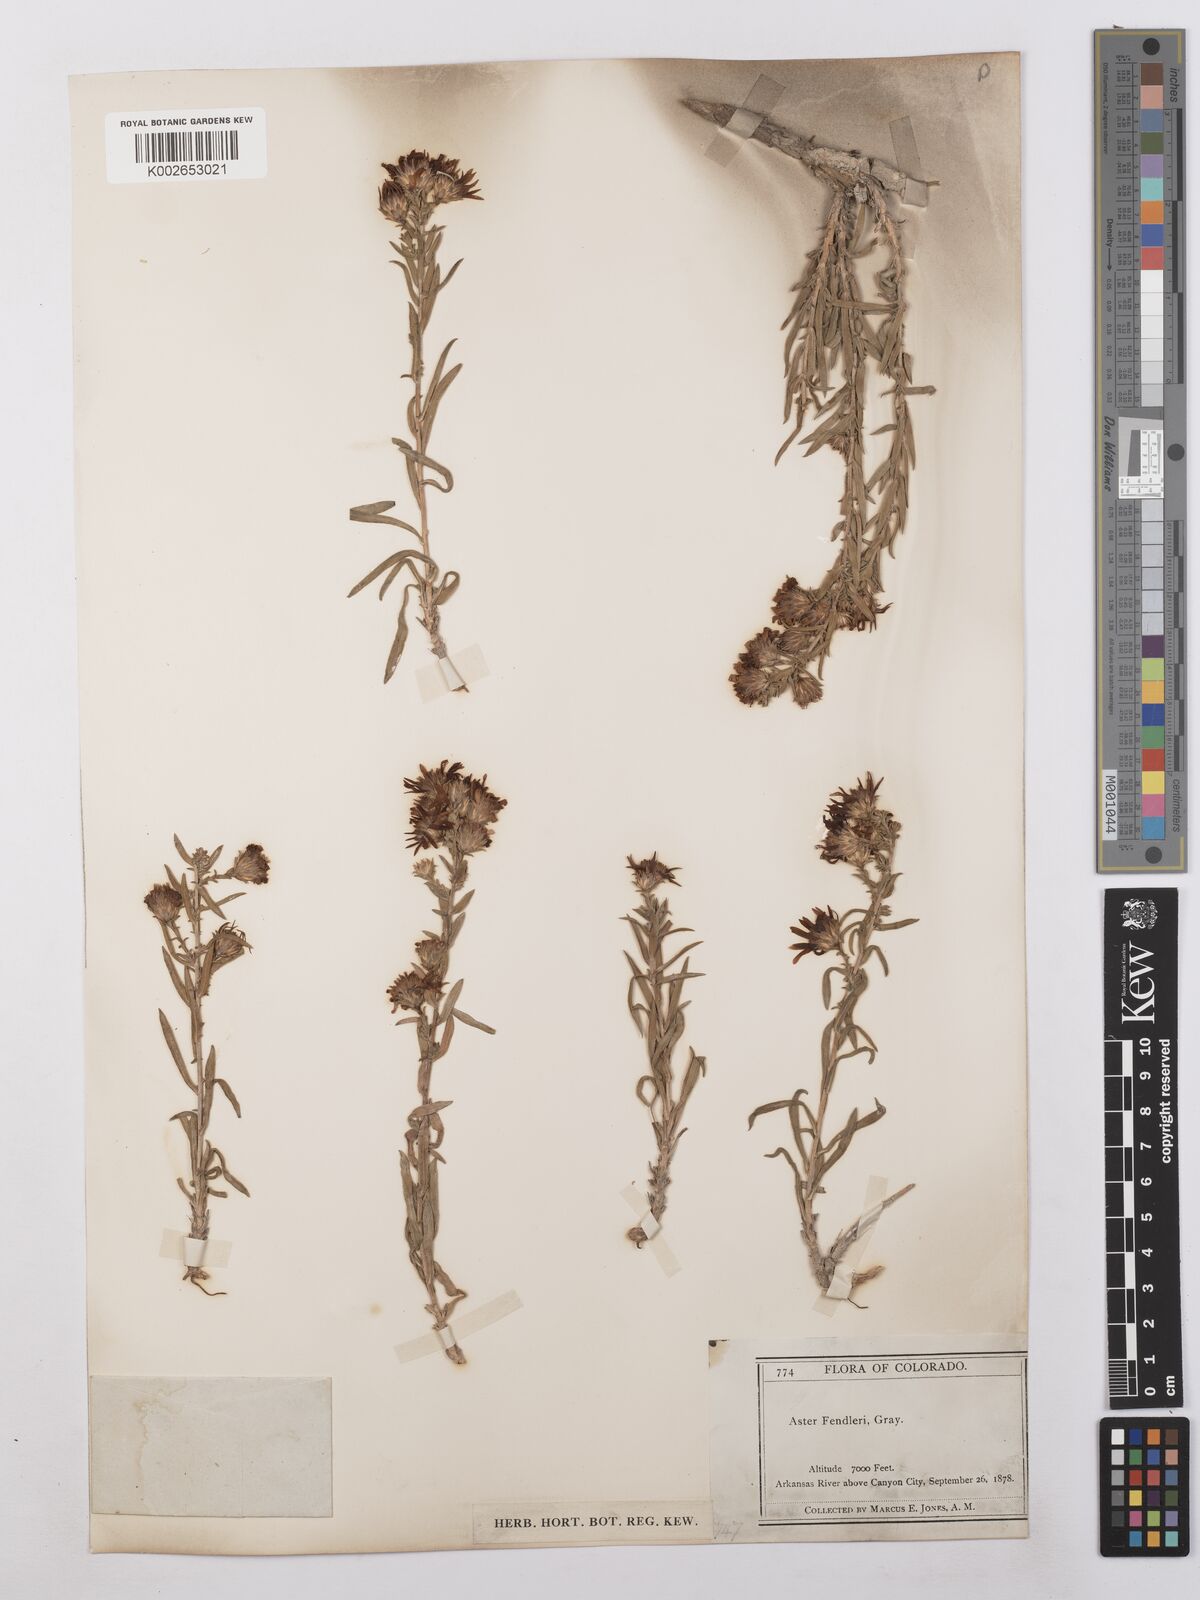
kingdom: Plantae
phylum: Tracheophyta
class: Magnoliopsida
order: Asterales
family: Asteraceae
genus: Symphyotrichum
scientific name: Symphyotrichum fendleri
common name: Fendler's aster
